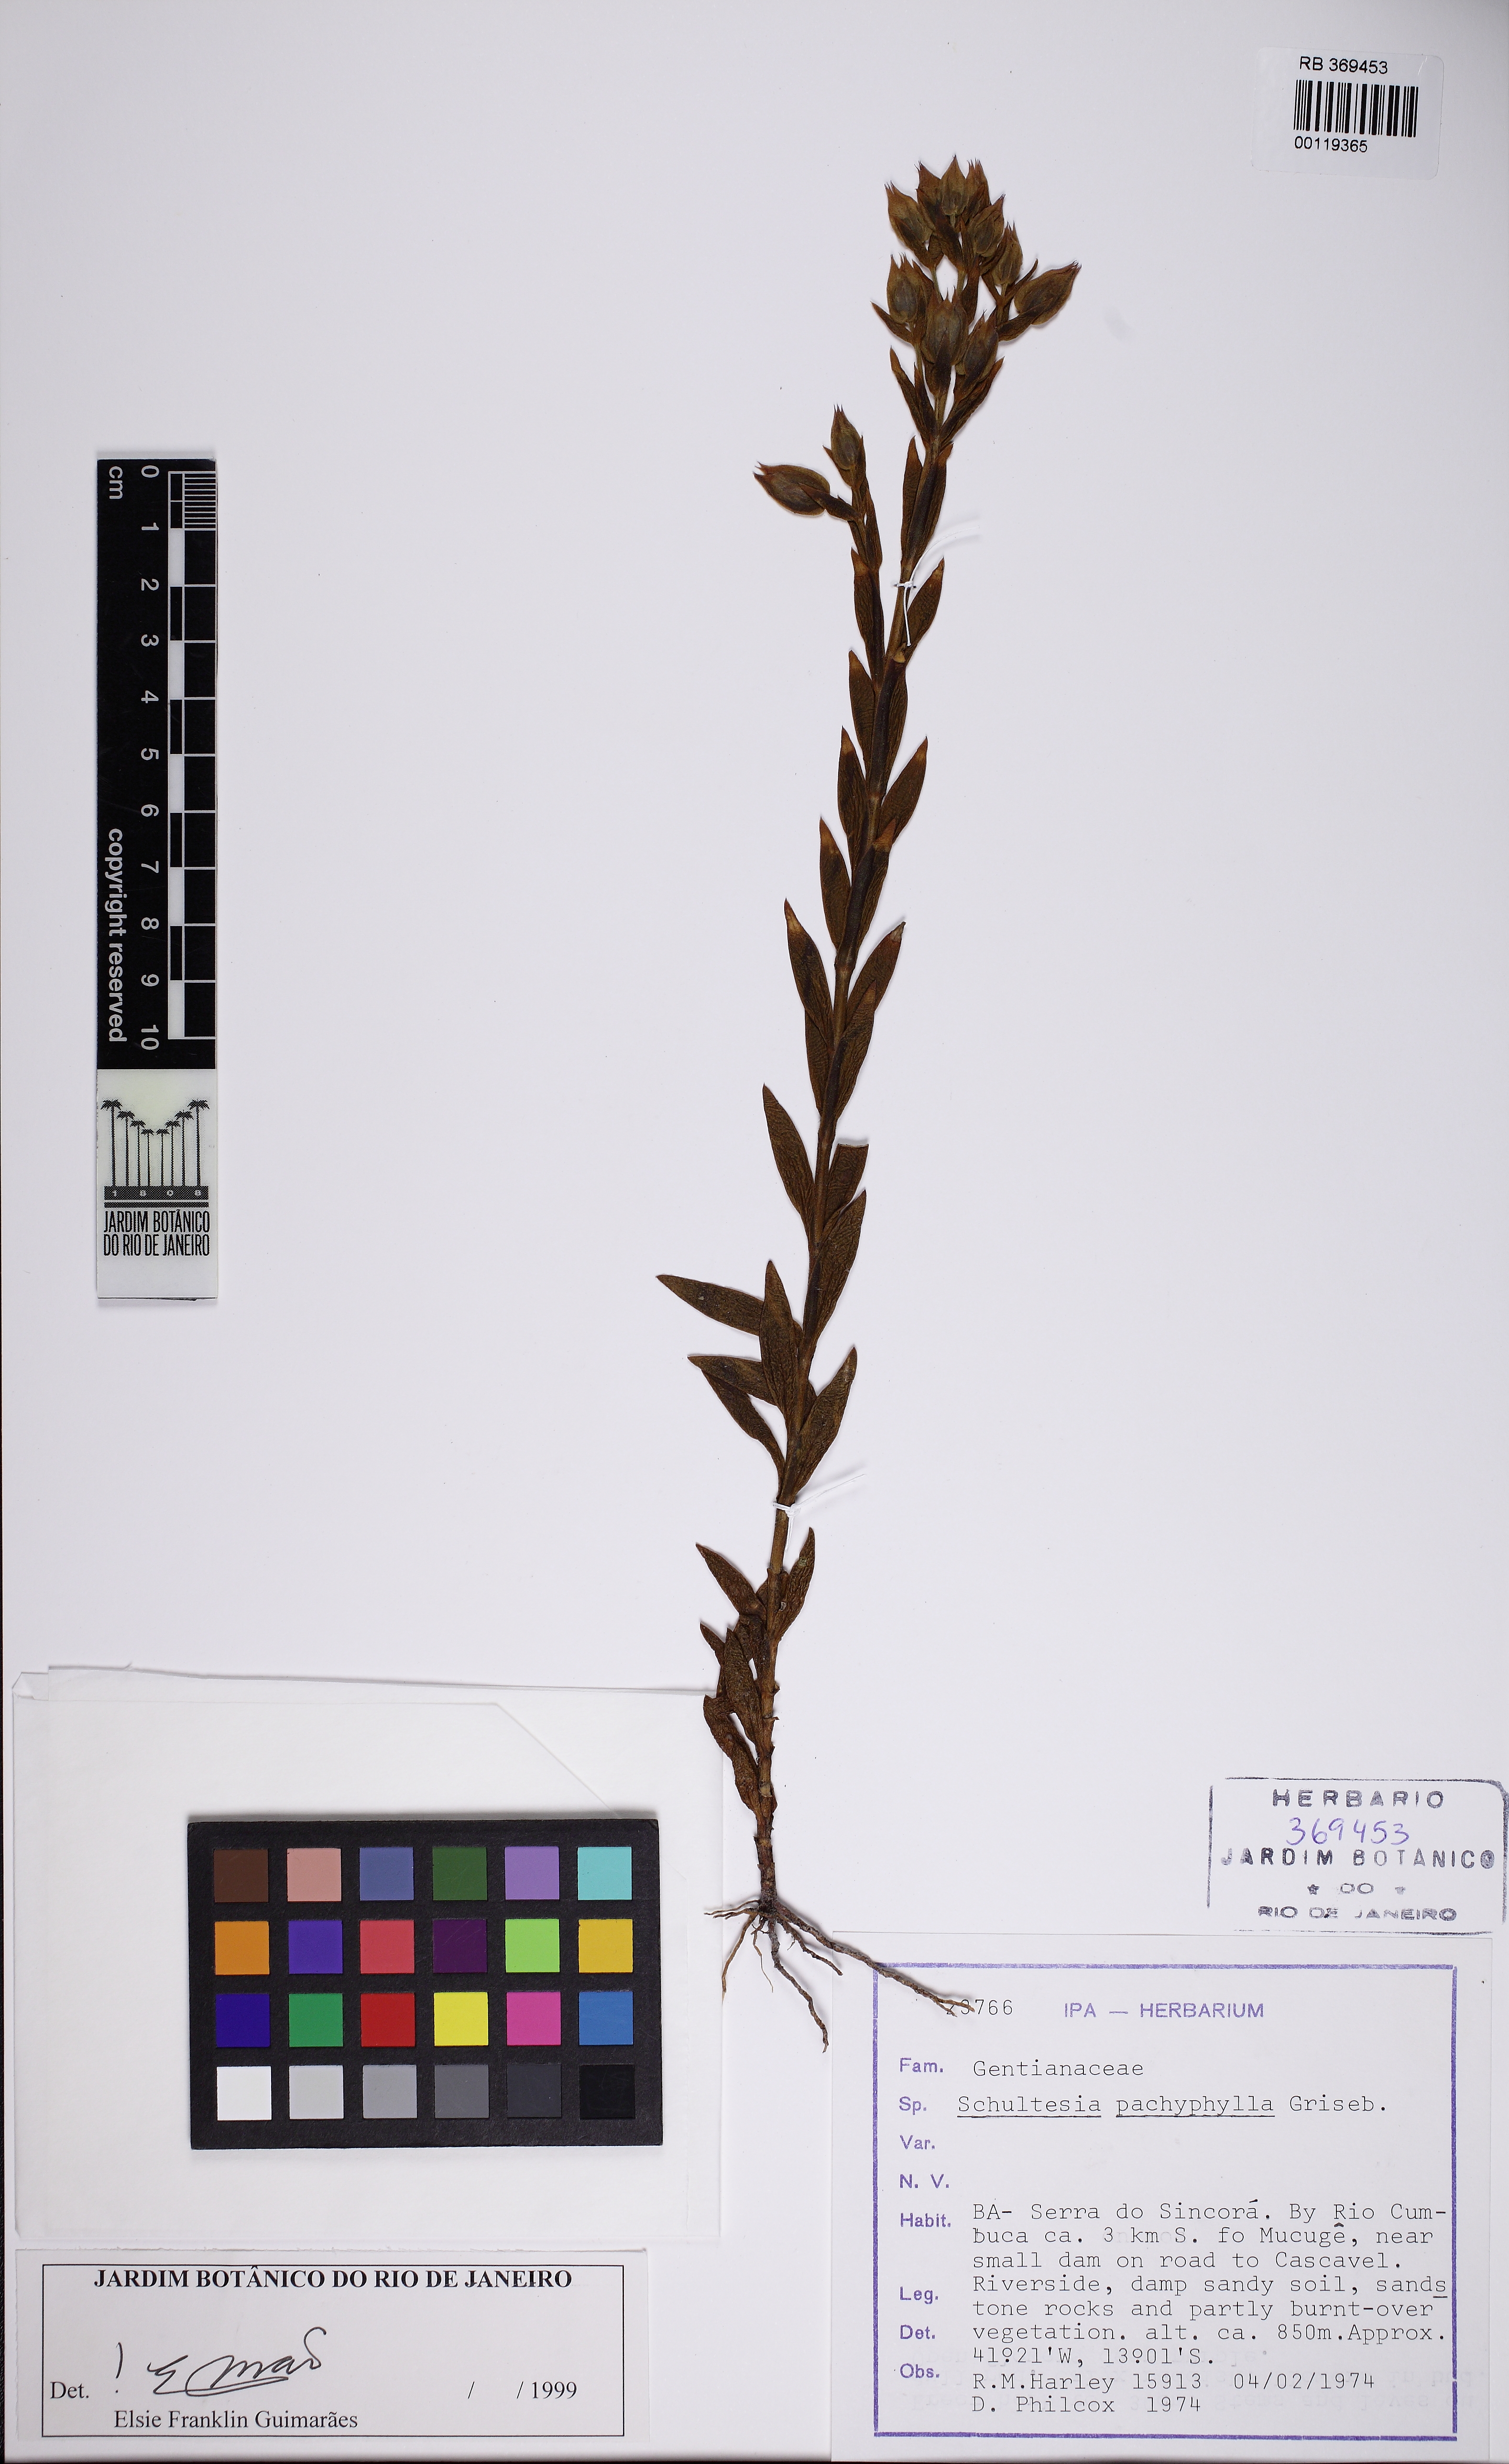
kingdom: Plantae
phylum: Tracheophyta
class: Magnoliopsida
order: Gentianales
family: Gentianaceae
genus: Schultesia
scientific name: Schultesia pachyphylla
